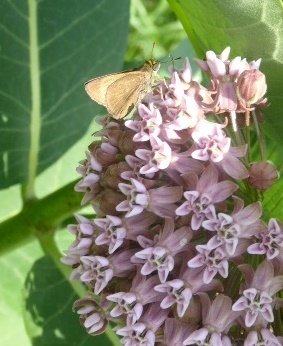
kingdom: Animalia
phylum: Arthropoda
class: Insecta
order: Lepidoptera
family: Hesperiidae
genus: Ancyloxypha
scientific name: Ancyloxypha numitor
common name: Least Skipper
